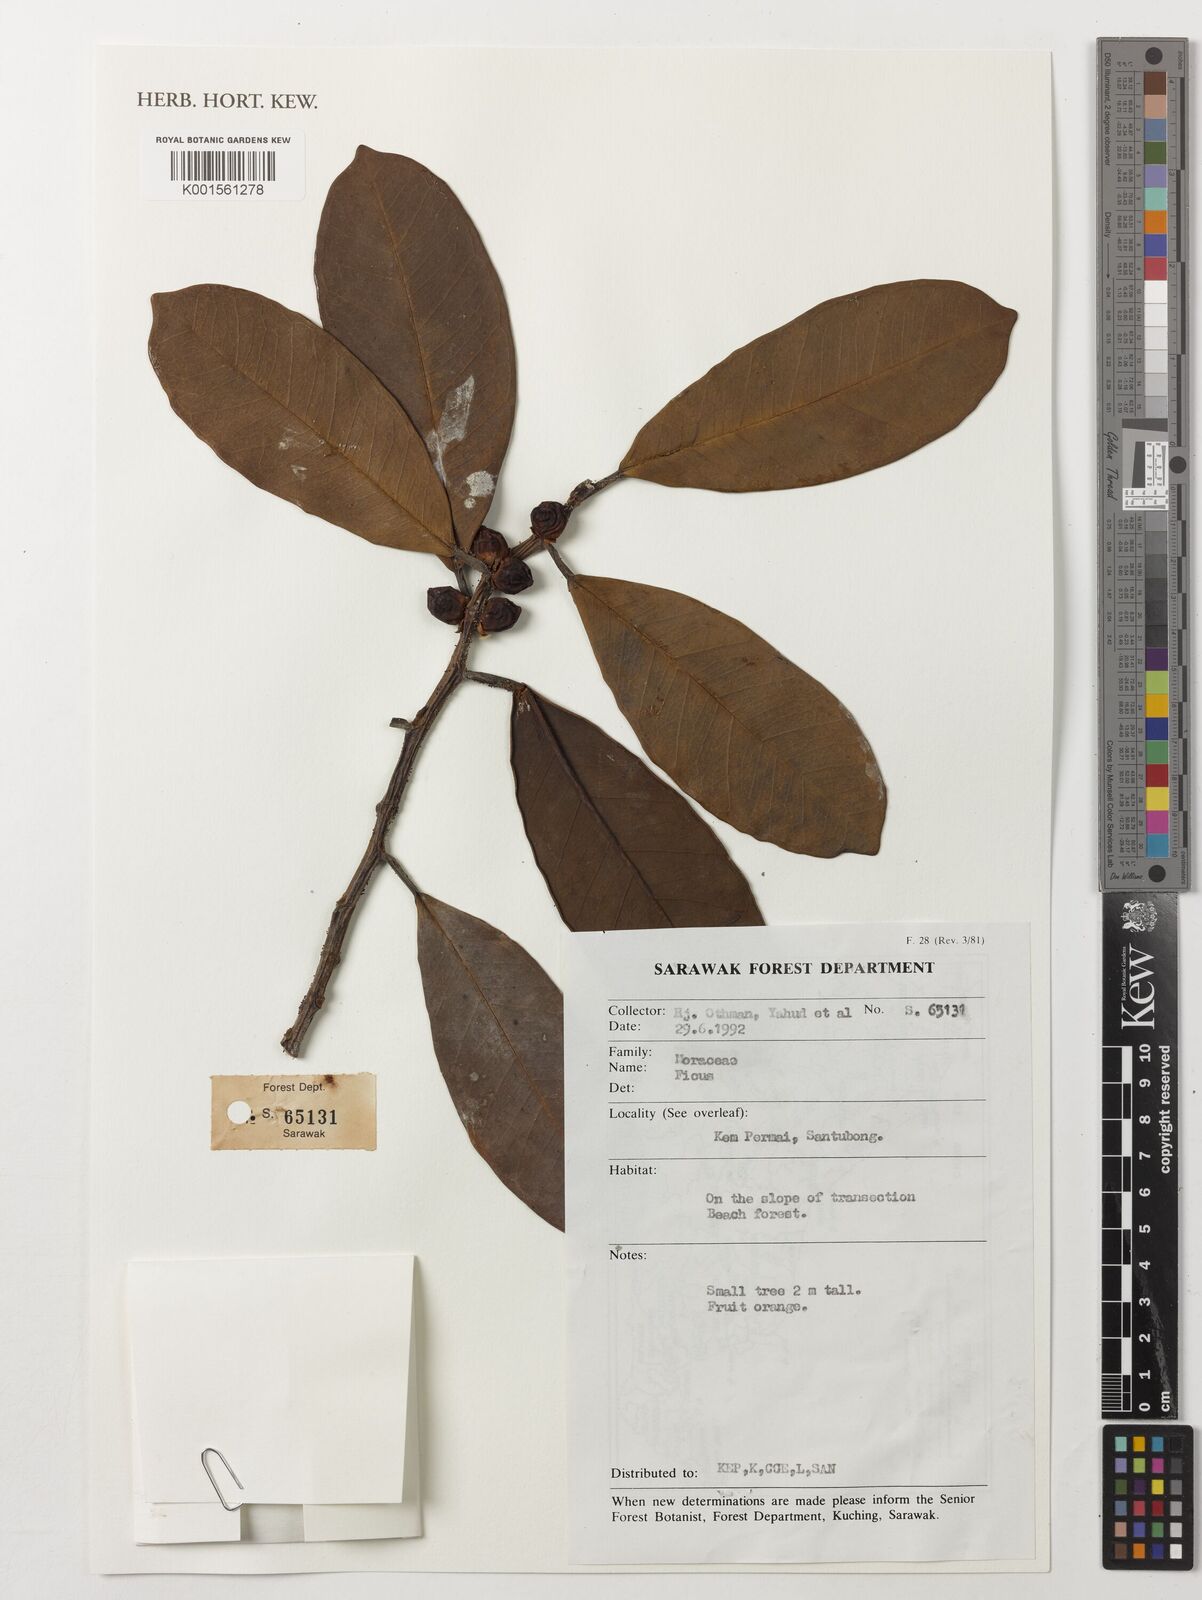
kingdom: Plantae
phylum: Tracheophyta
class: Magnoliopsida
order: Rosales
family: Moraceae
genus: Ficus
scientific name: Ficus
